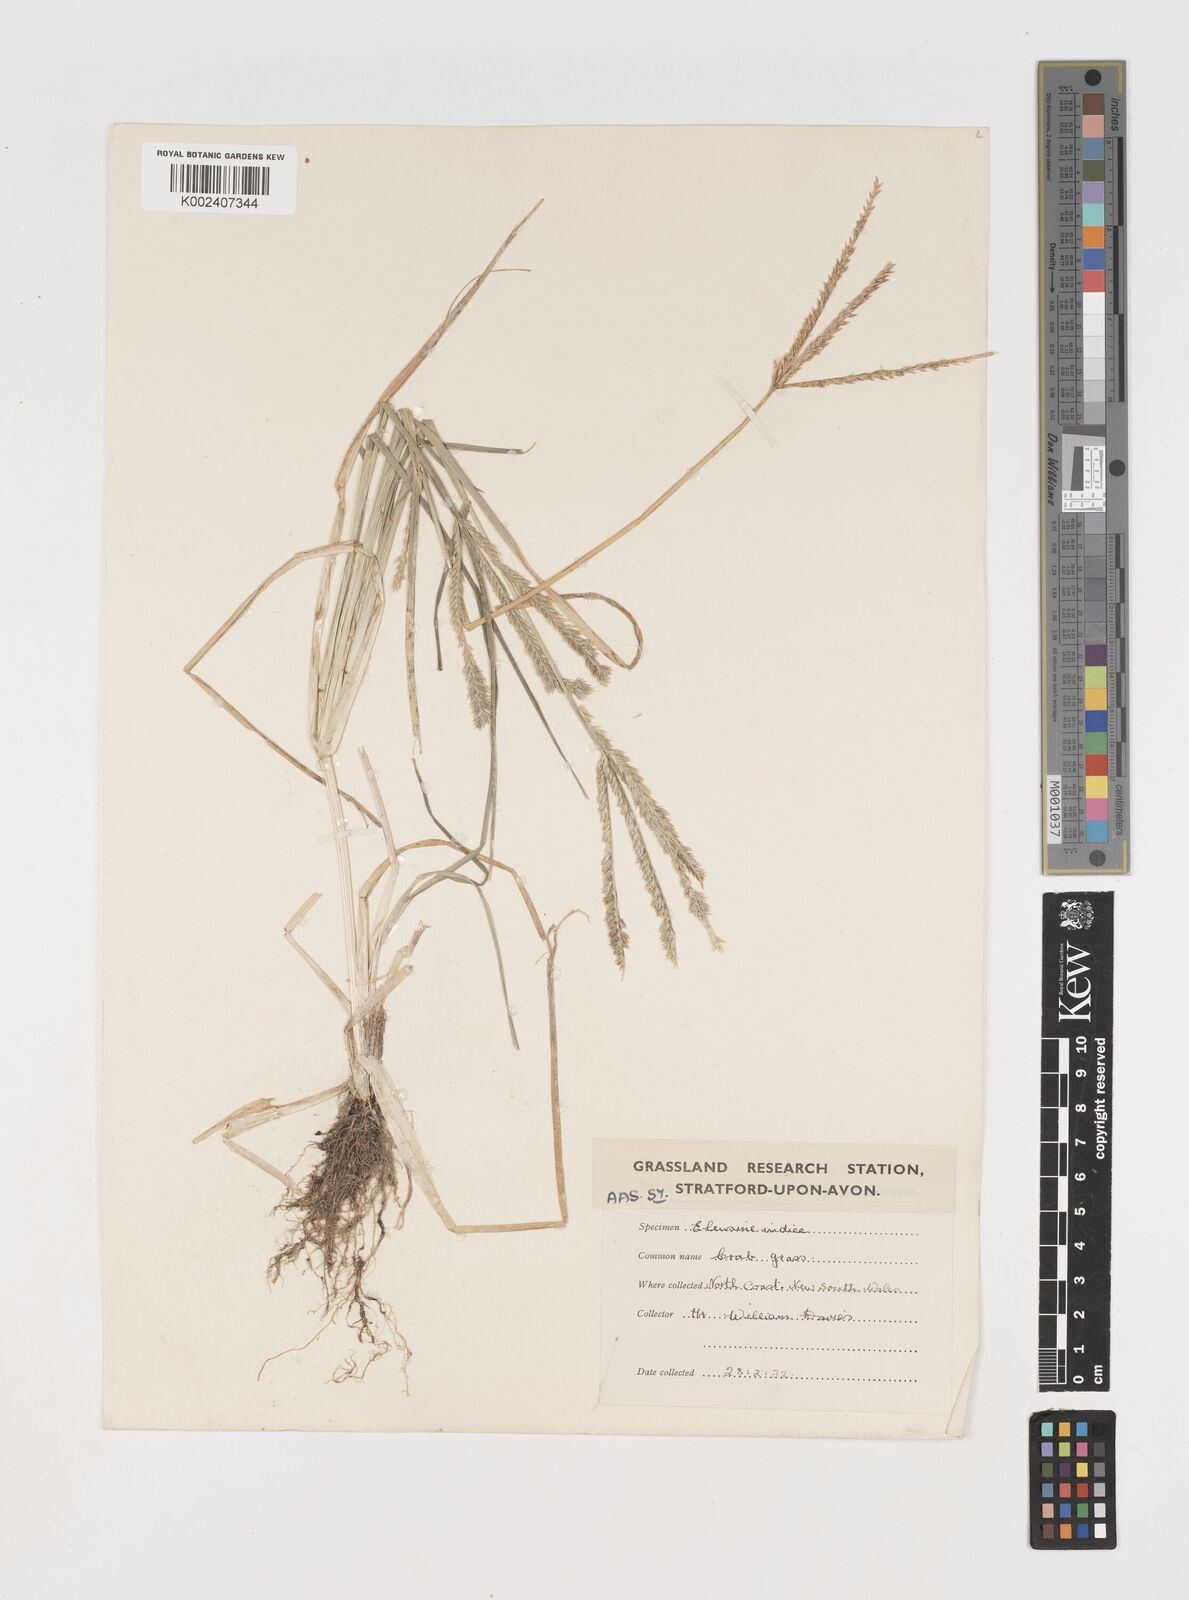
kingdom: Plantae
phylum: Tracheophyta
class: Liliopsida
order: Poales
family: Poaceae
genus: Eleusine
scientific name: Eleusine indica
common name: Yard-grass
